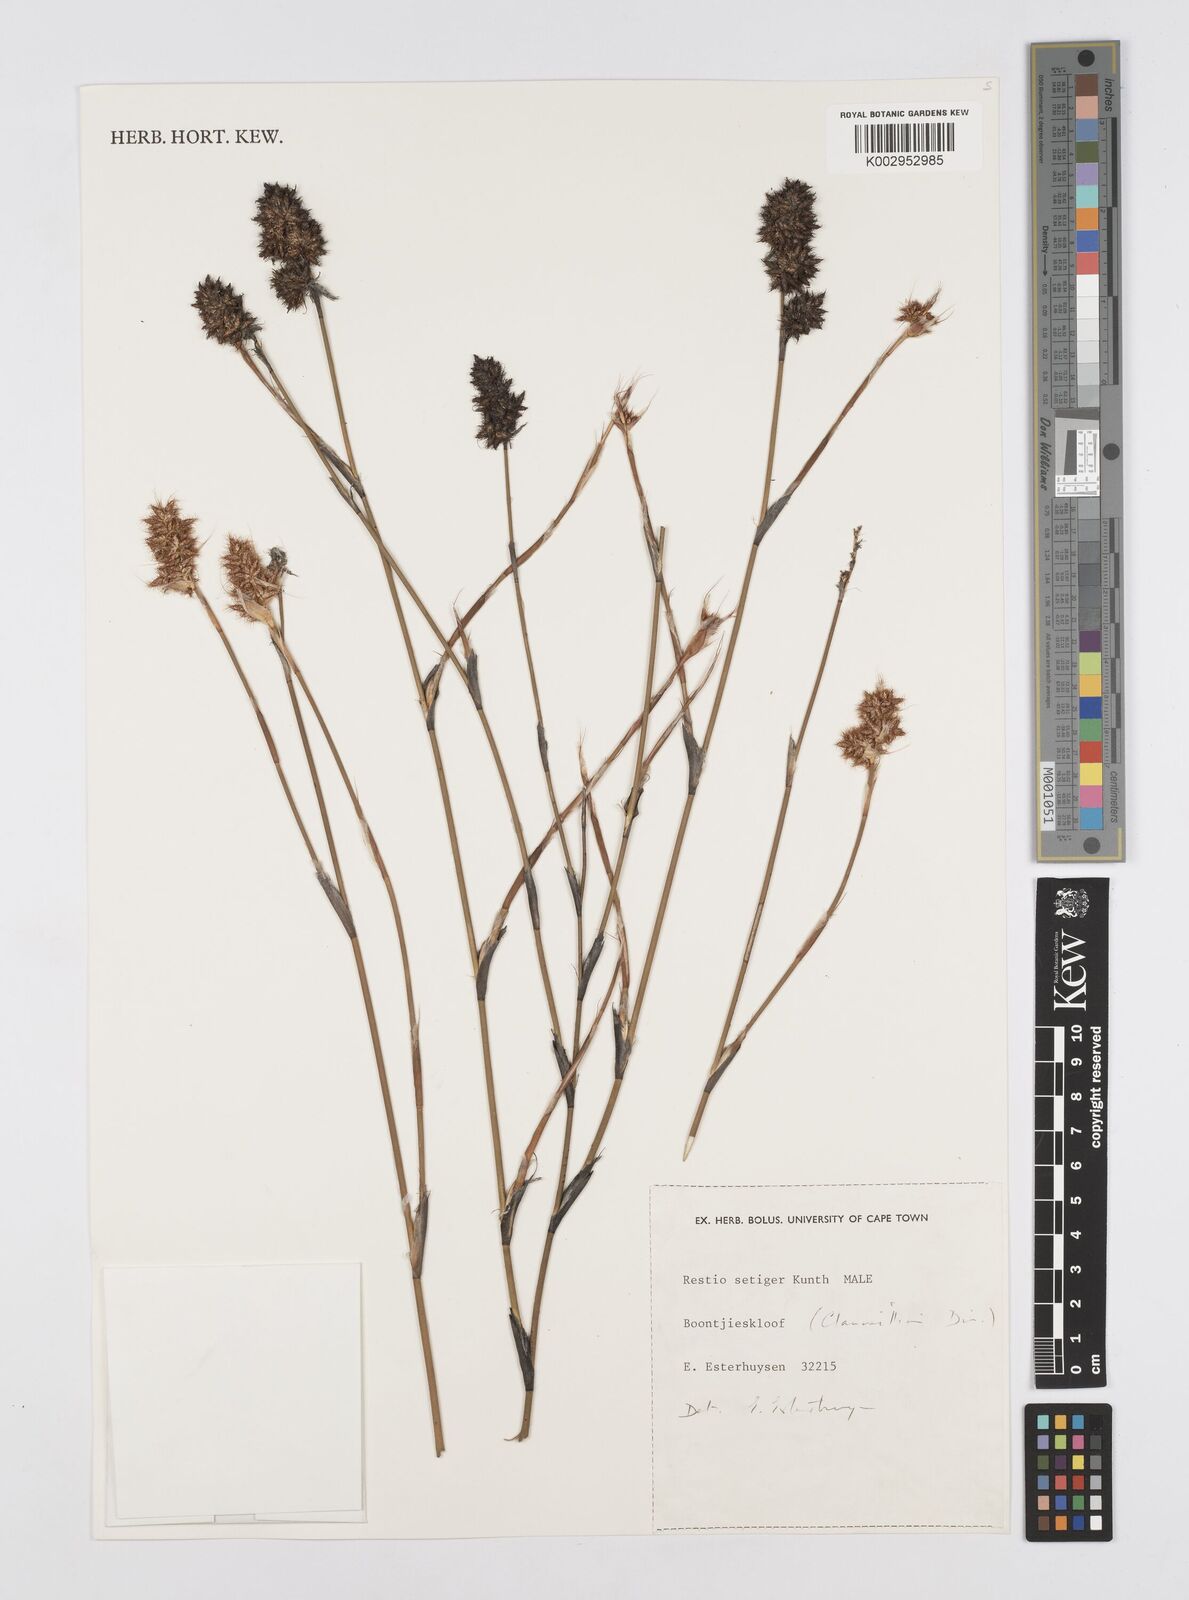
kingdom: Plantae
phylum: Tracheophyta
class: Liliopsida
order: Poales
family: Restionaceae
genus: Restio
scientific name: Restio setiger
